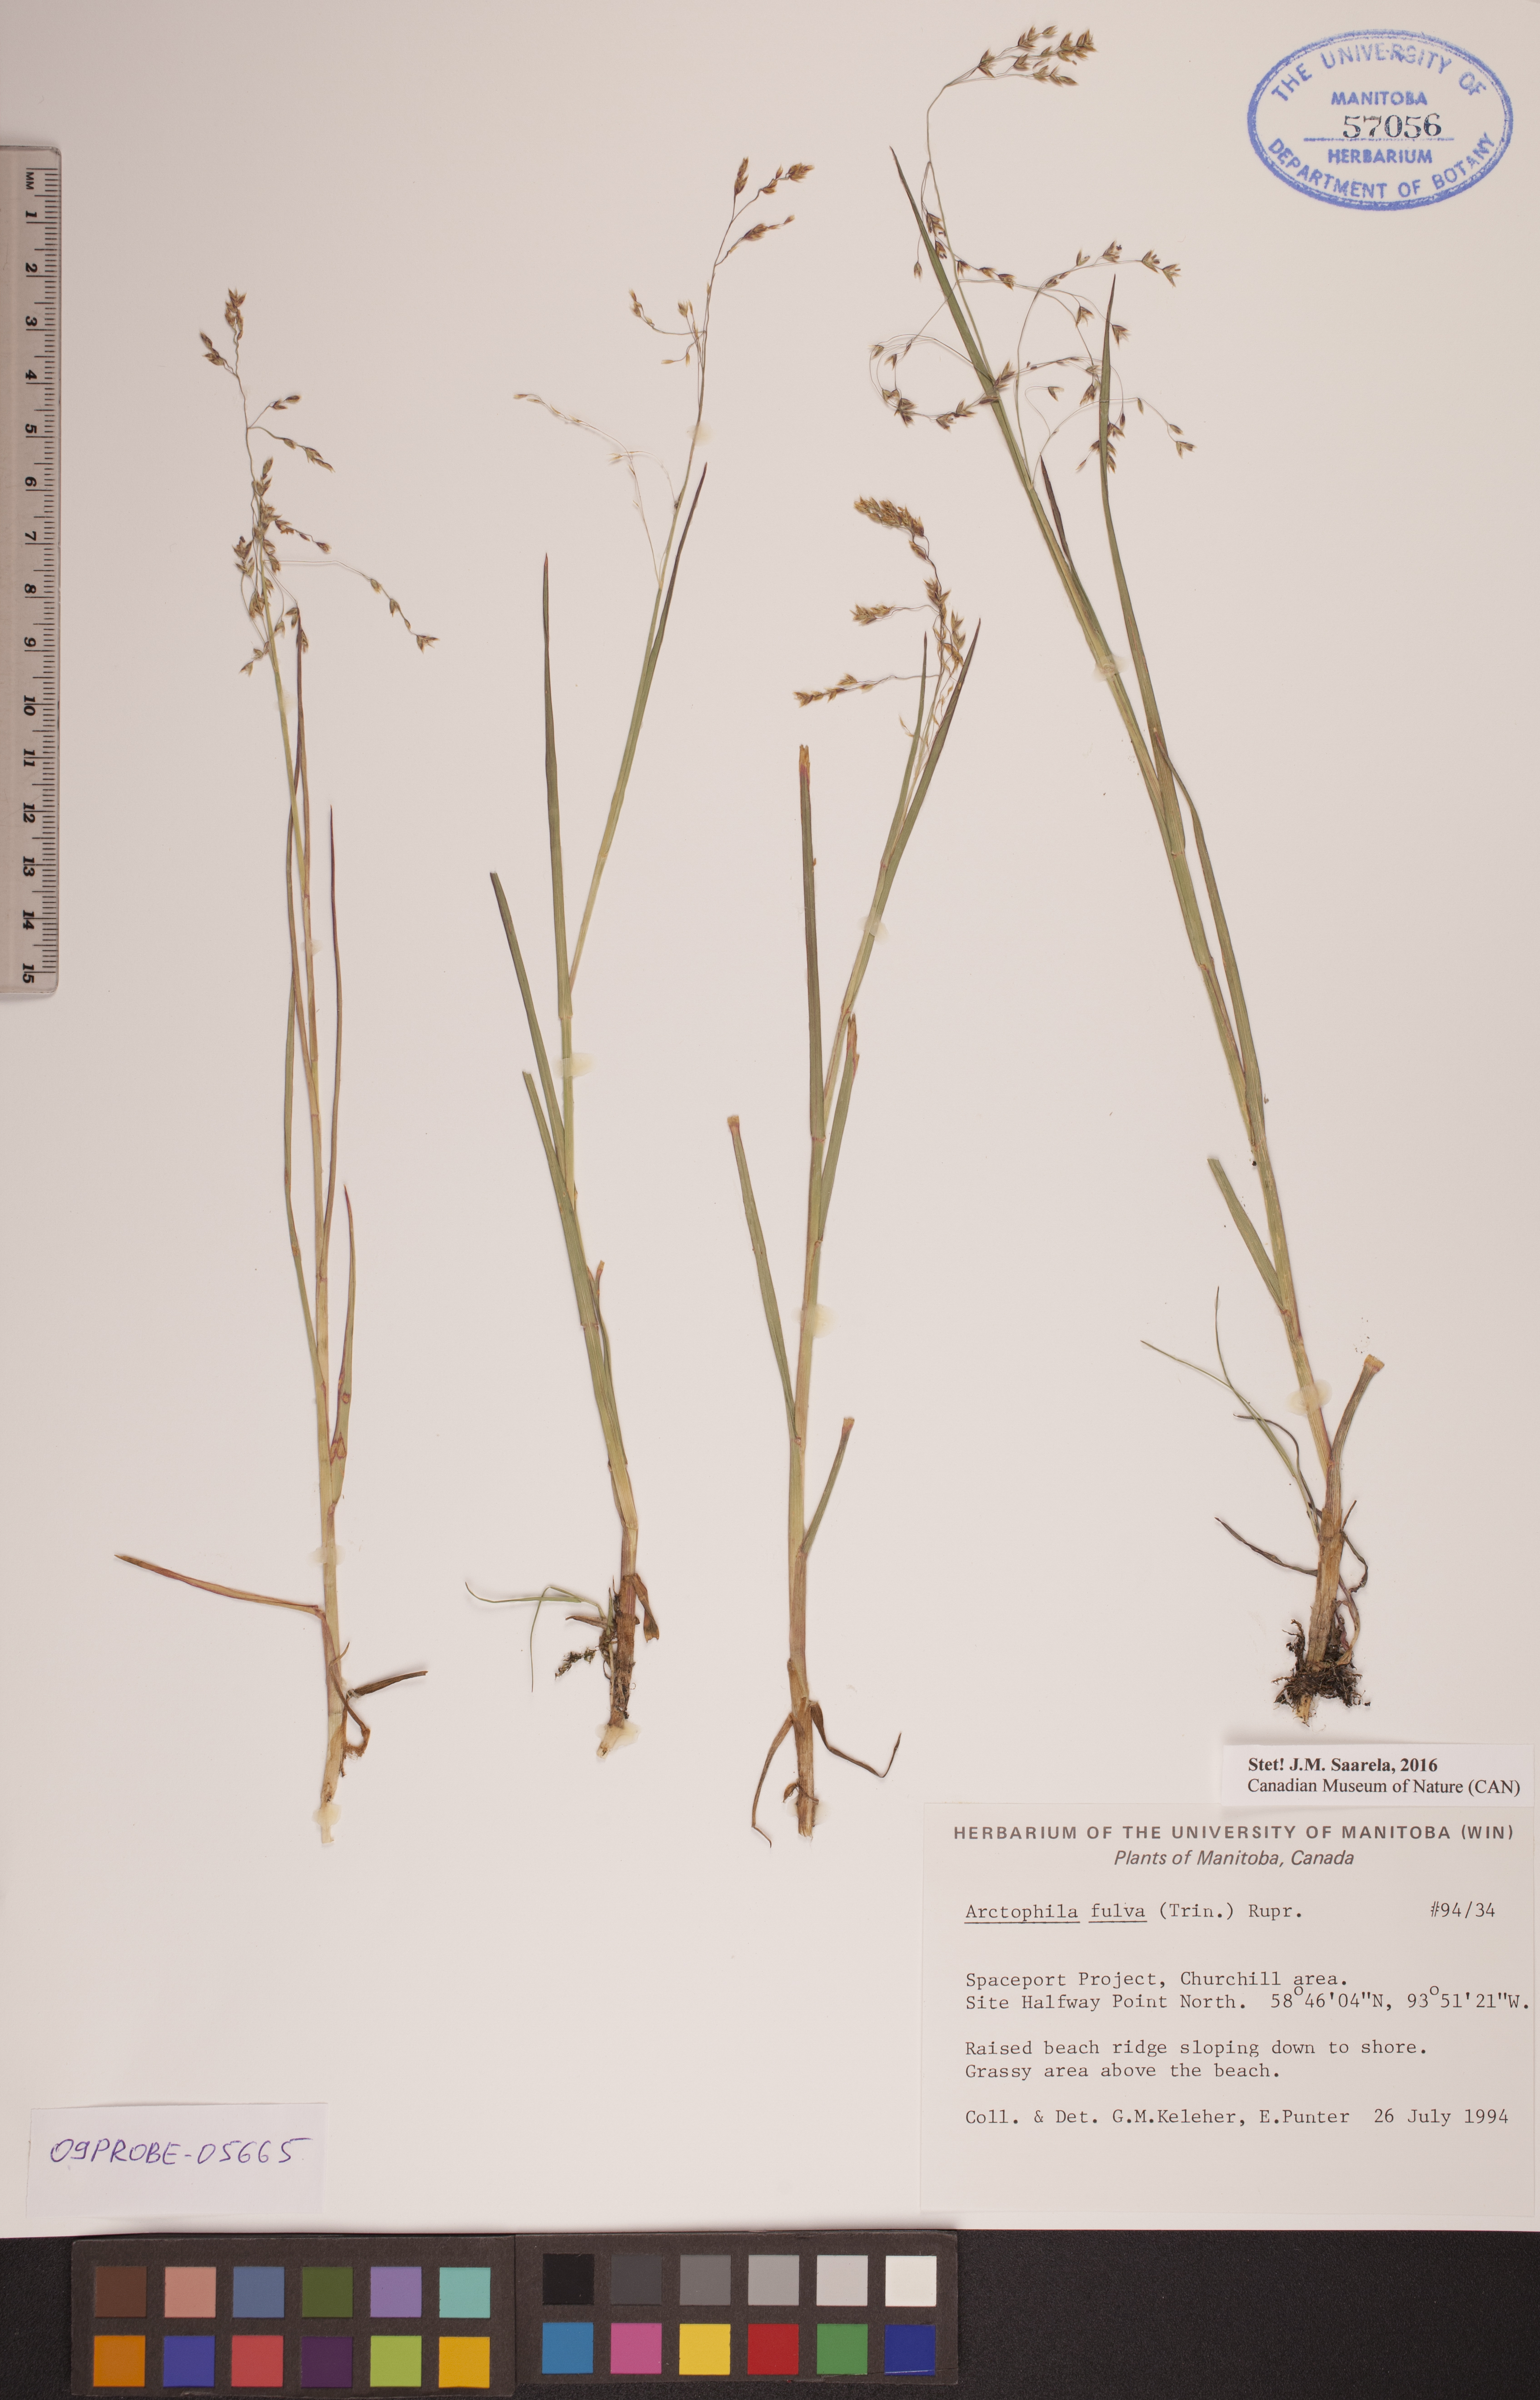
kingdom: Plantae
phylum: Tracheophyta
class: Liliopsida
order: Poales
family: Poaceae
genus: Dupontia
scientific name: Dupontia fulva
